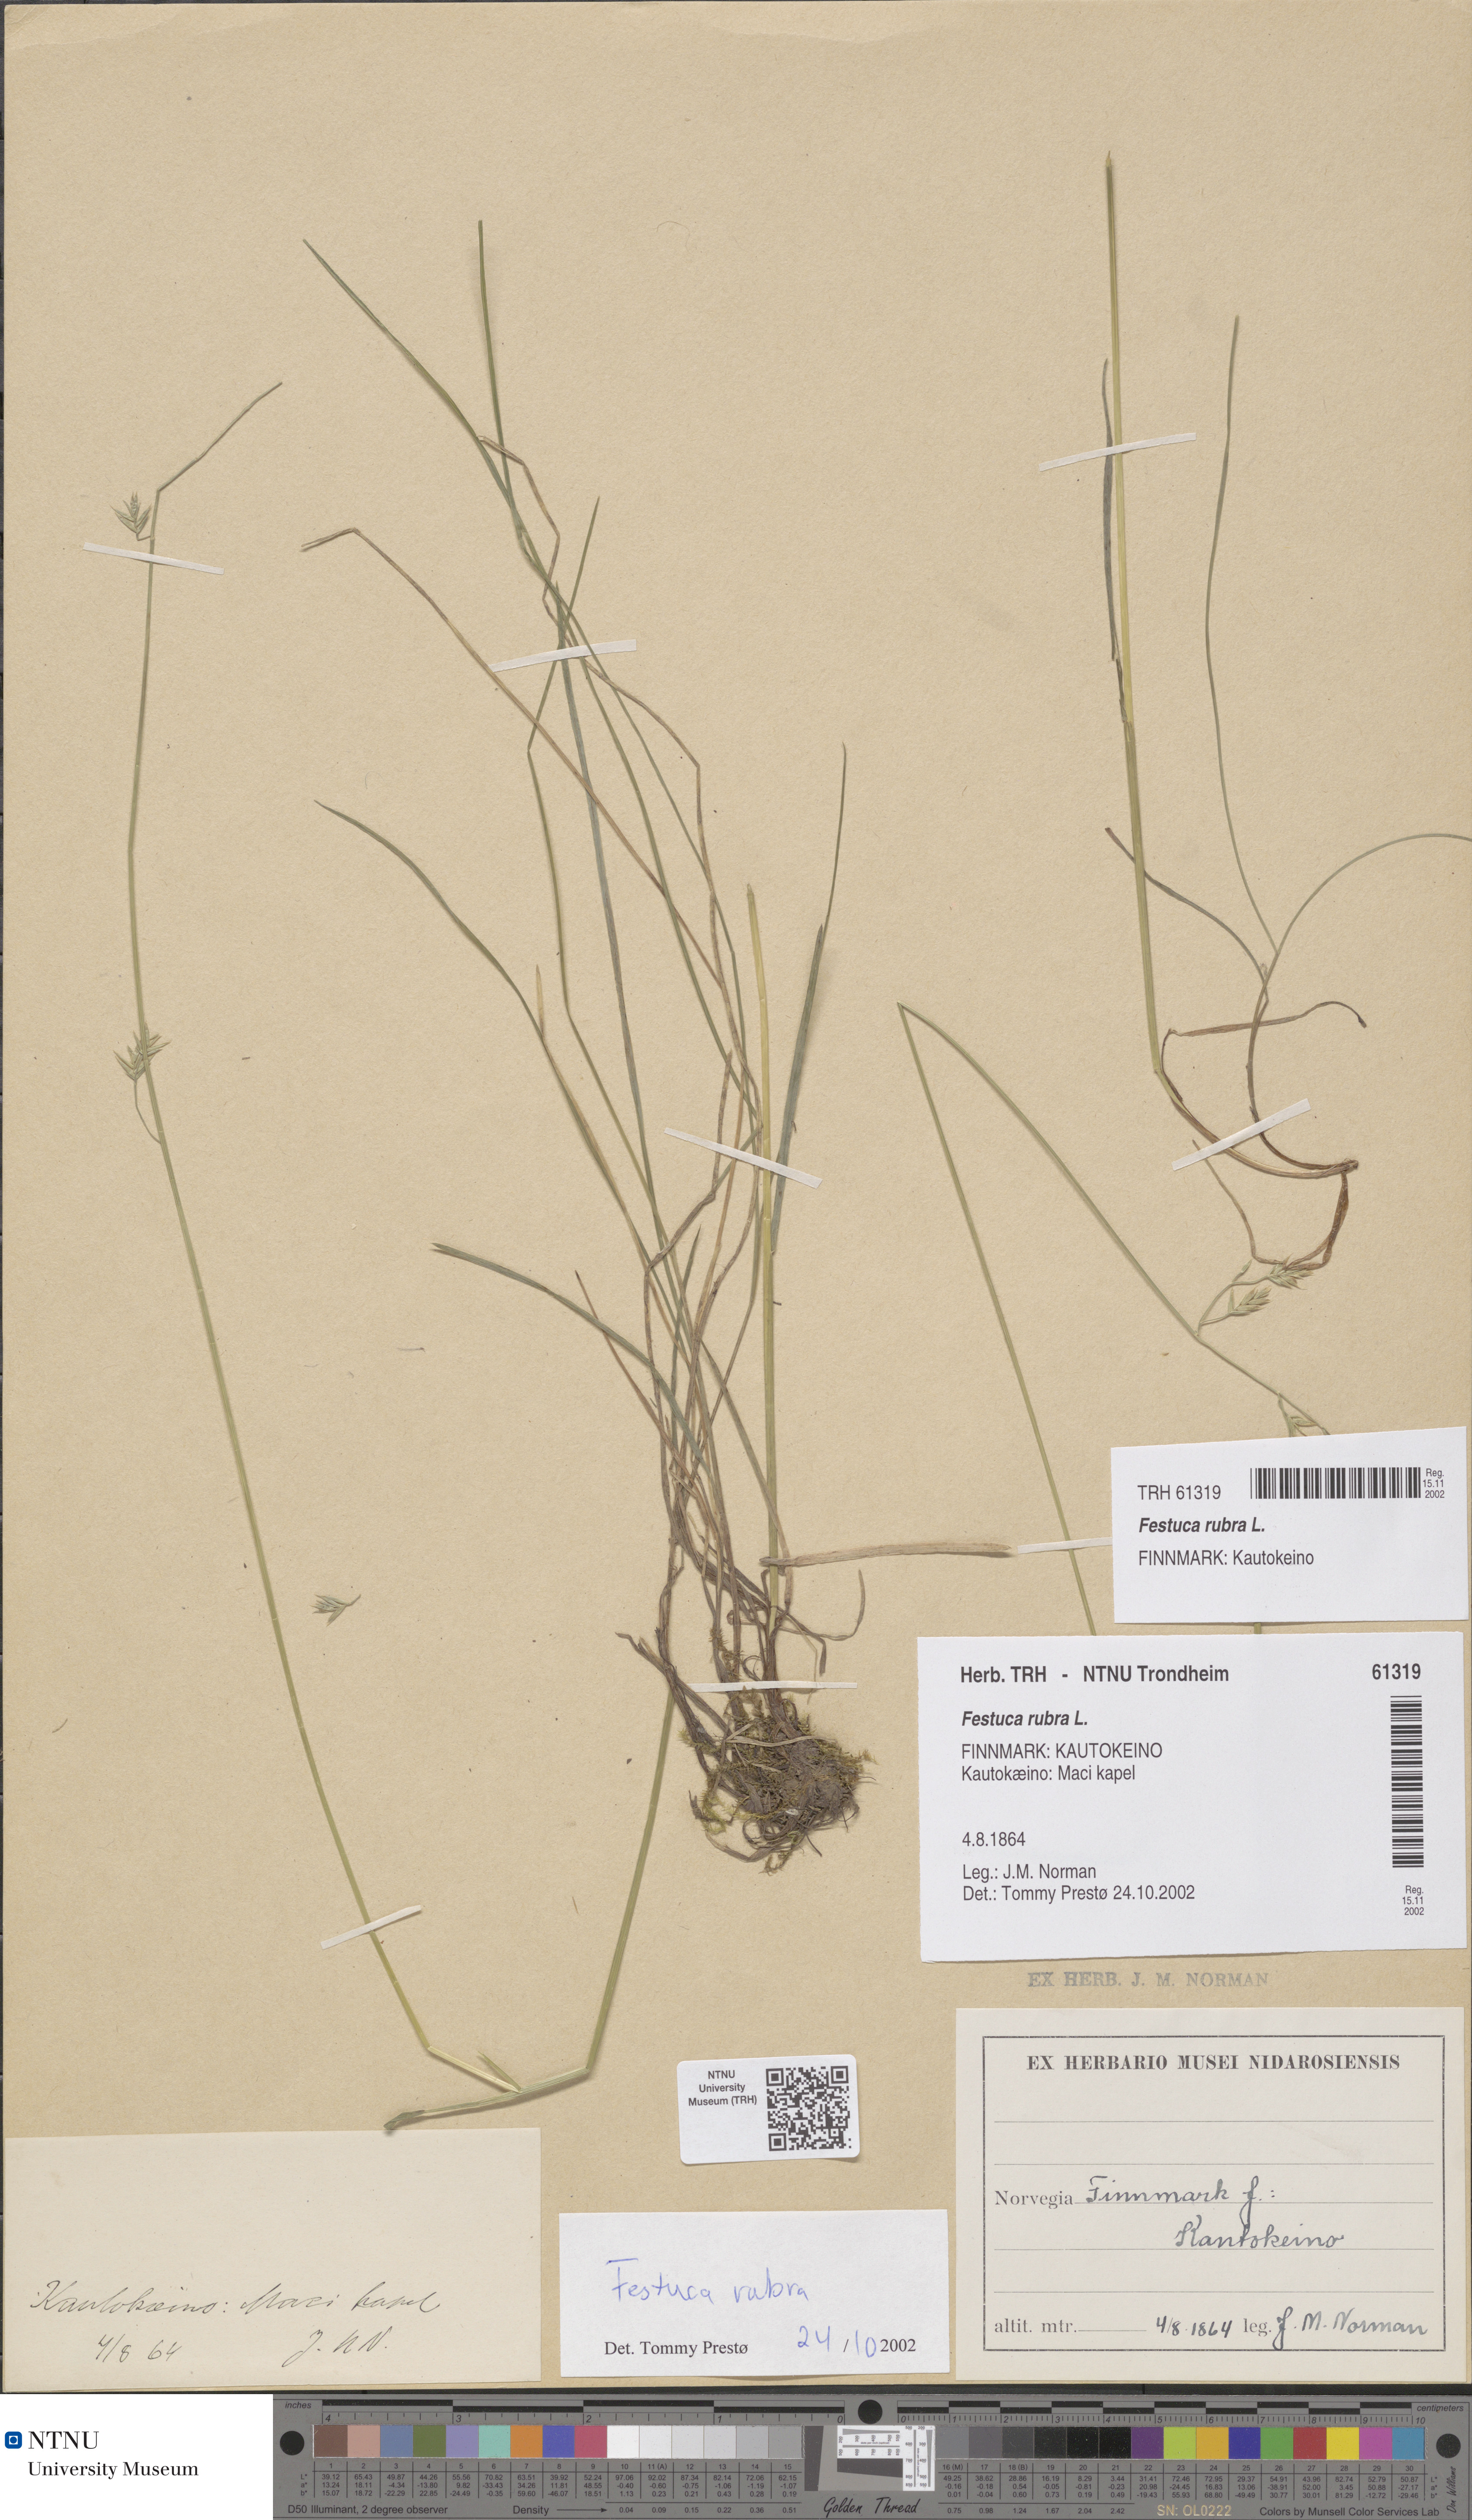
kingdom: Plantae
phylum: Tracheophyta
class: Liliopsida
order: Poales
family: Poaceae
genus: Festuca
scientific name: Festuca rubra
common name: Red fescue
